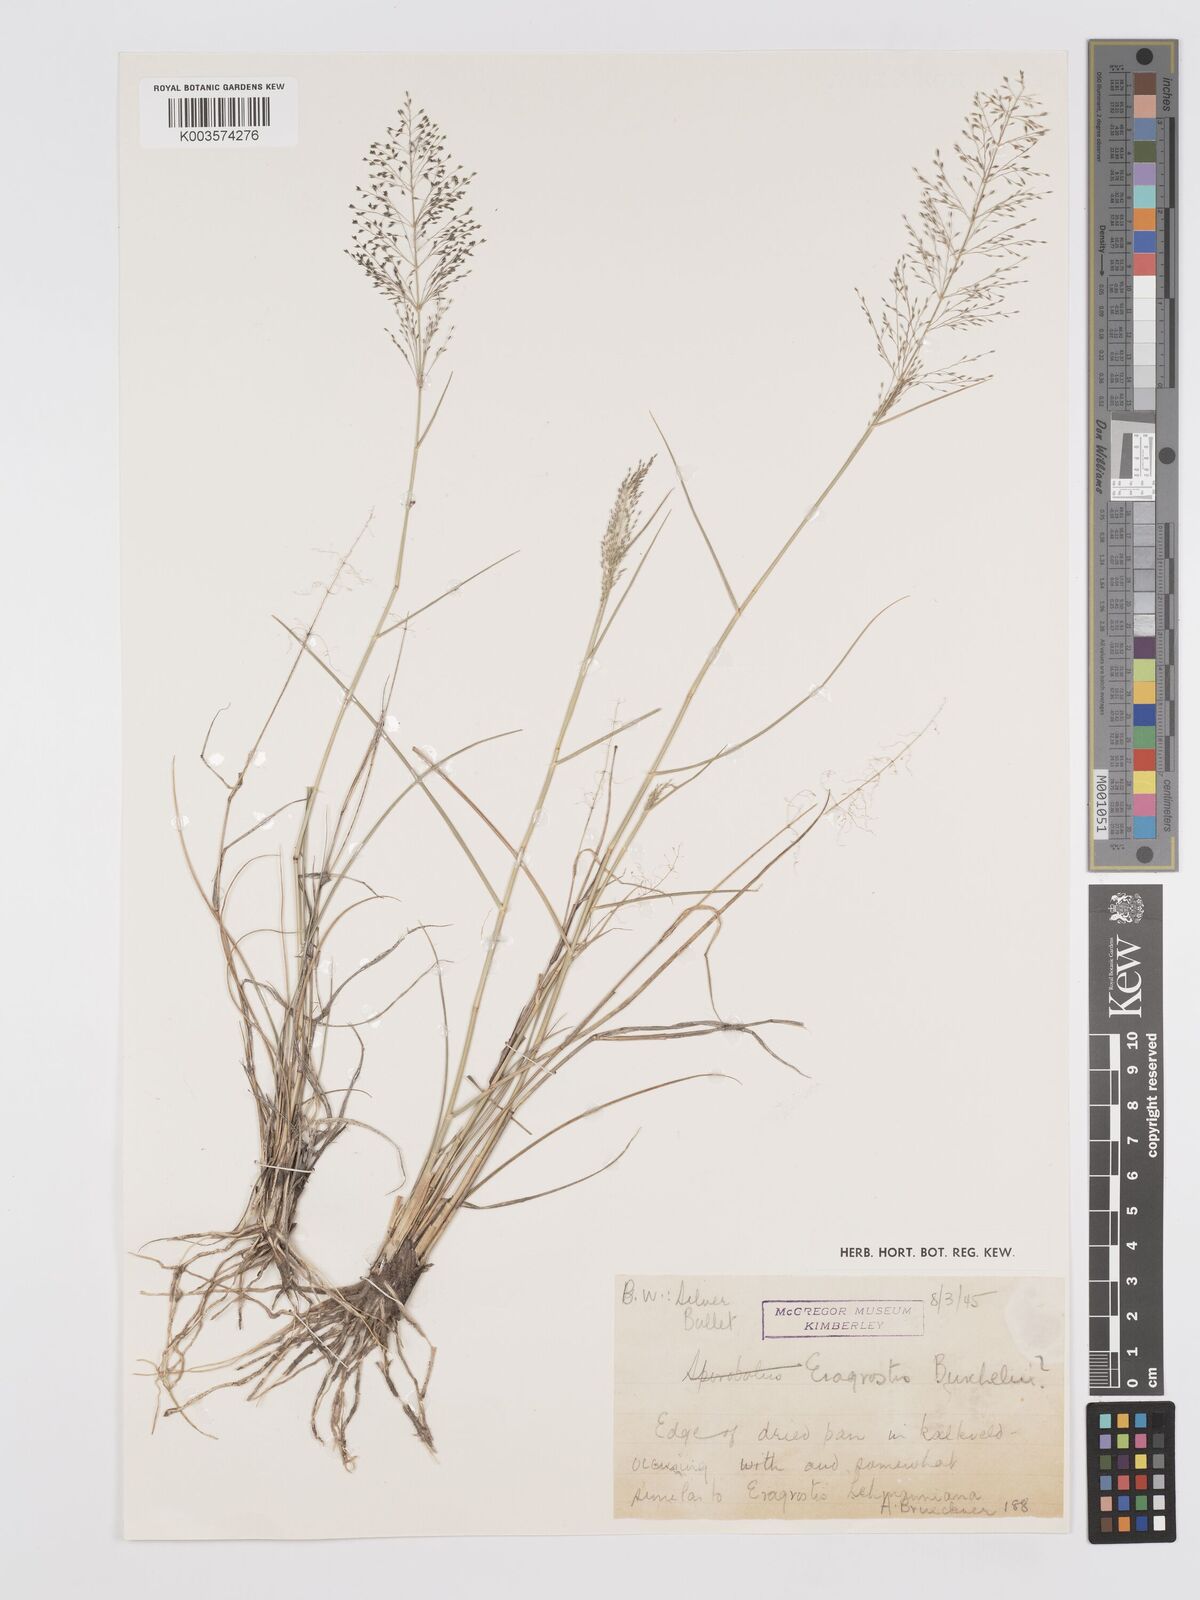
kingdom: Plantae
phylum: Tracheophyta
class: Liliopsida
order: Poales
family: Poaceae
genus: Eragrostis
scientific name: Eragrostis micrantha
